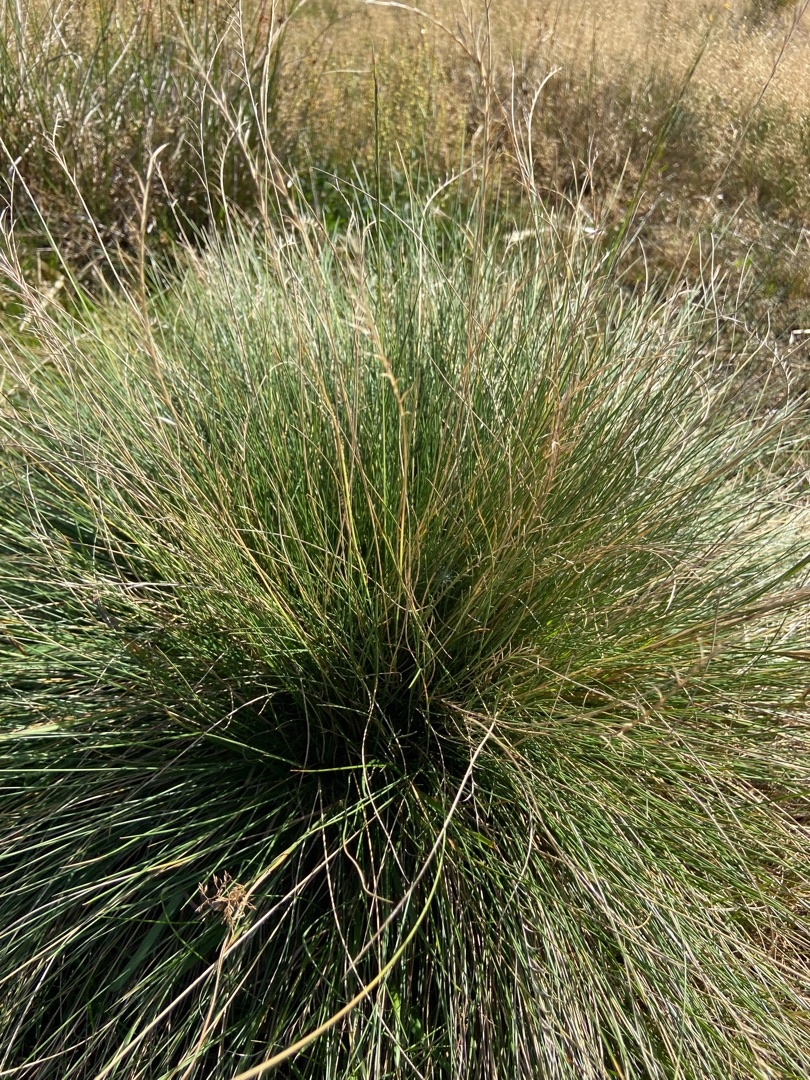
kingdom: Plantae
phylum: Tracheophyta
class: Liliopsida
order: Poales
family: Poaceae
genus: Nardus
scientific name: Nardus stricta
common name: Katteskæg
